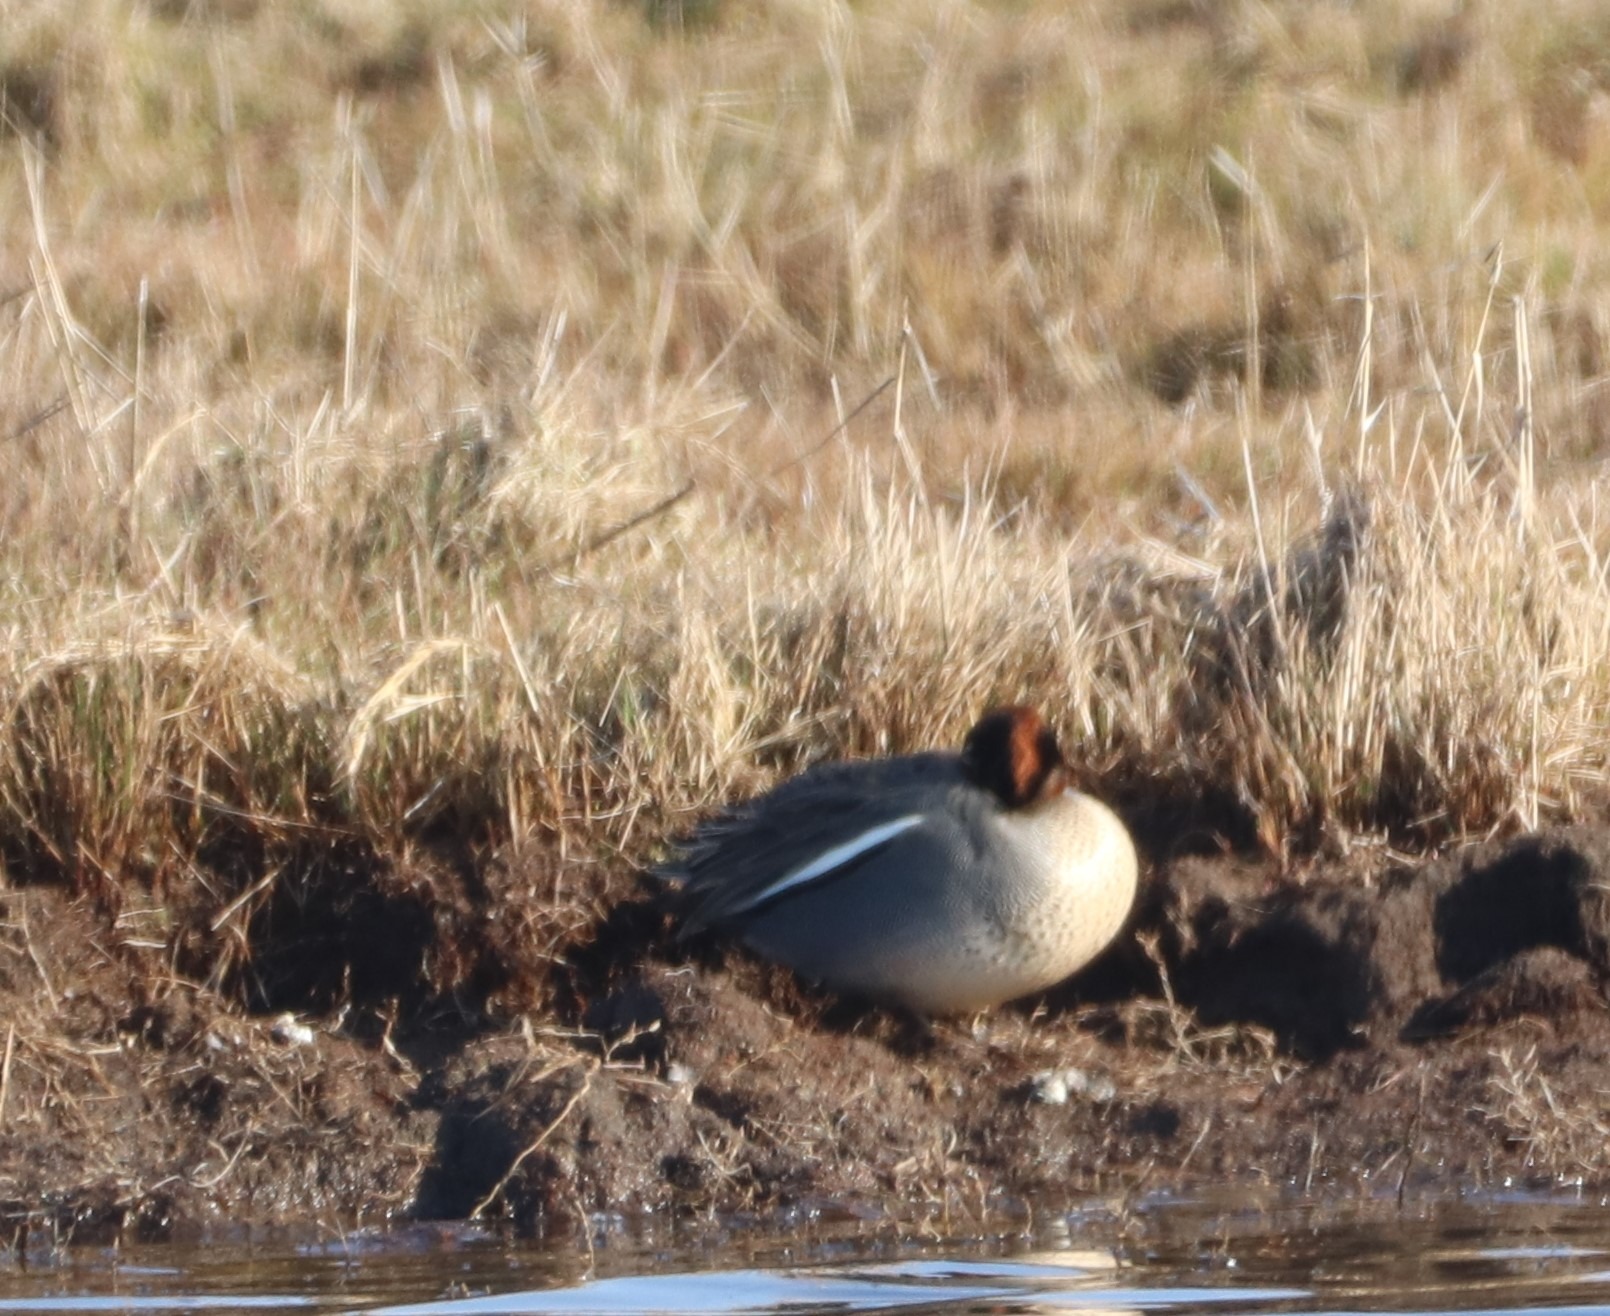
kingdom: Animalia
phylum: Chordata
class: Aves
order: Anseriformes
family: Anatidae
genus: Anas
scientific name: Anas crecca
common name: Krikand
